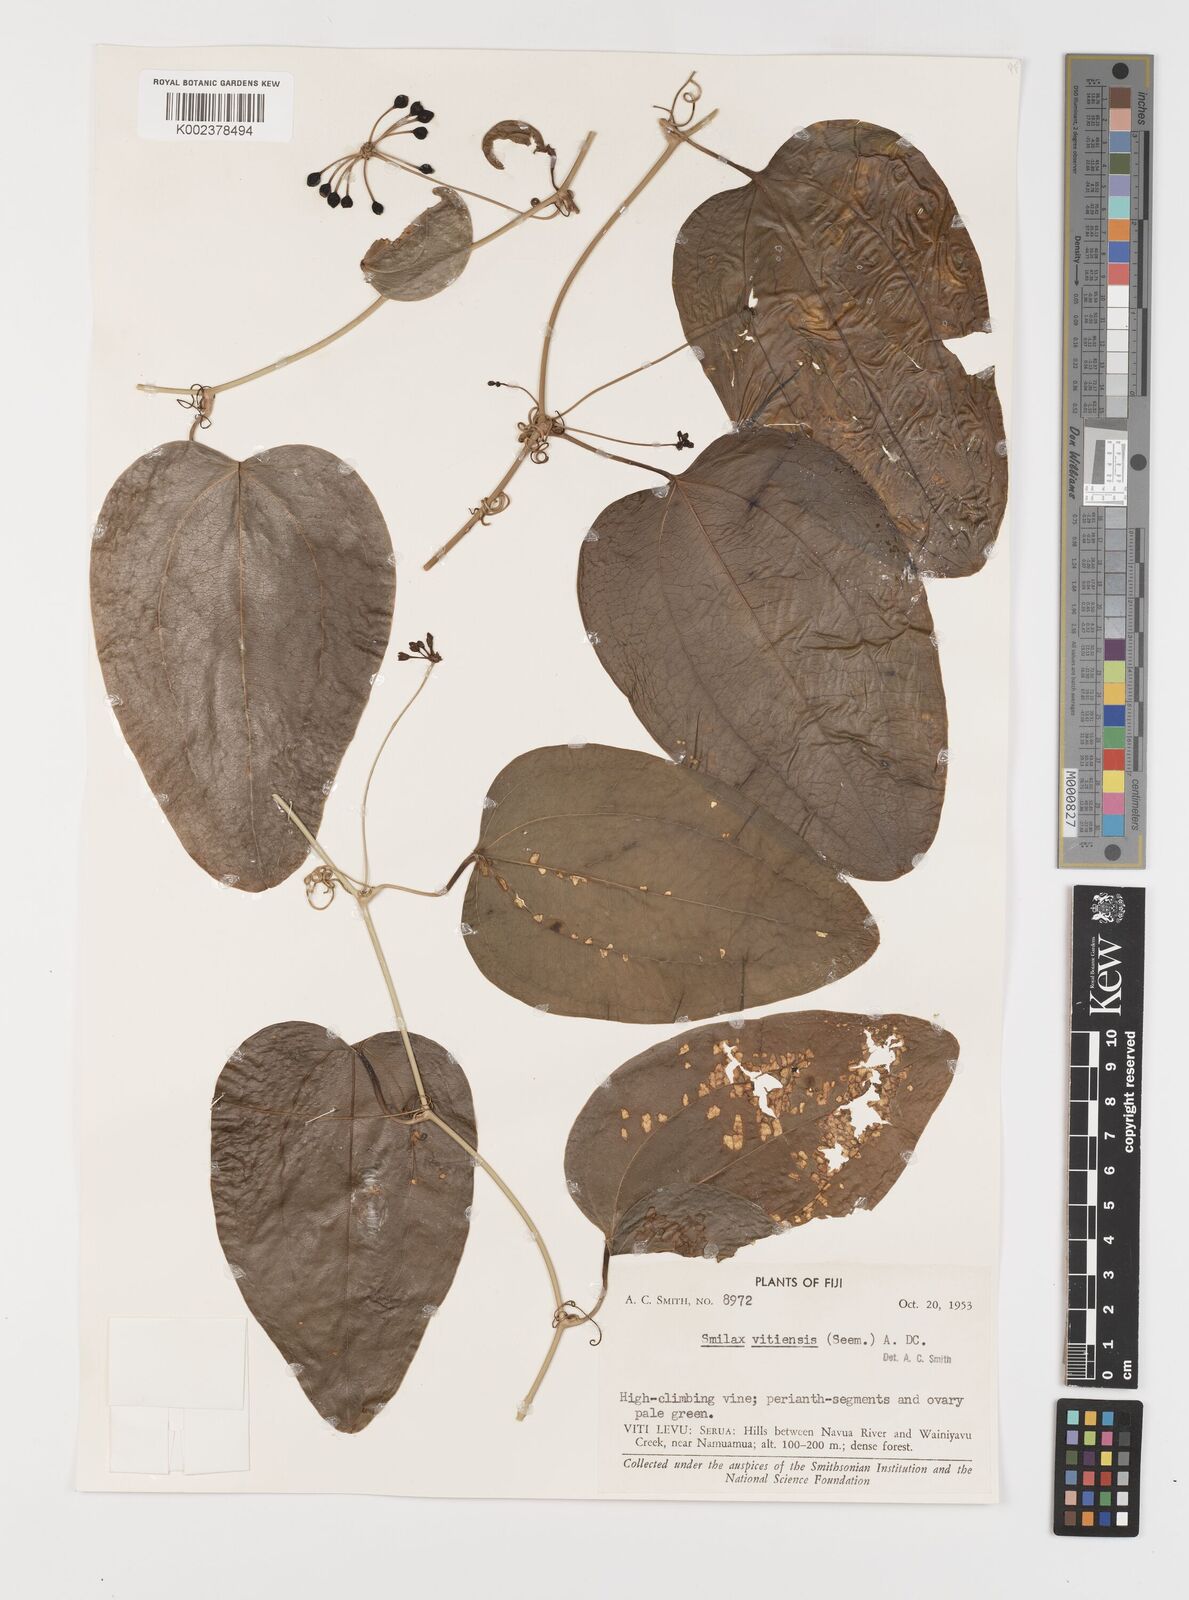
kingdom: Plantae
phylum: Tracheophyta
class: Liliopsida
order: Liliales
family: Smilacaceae
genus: Smilax
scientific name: Smilax vitiensis
